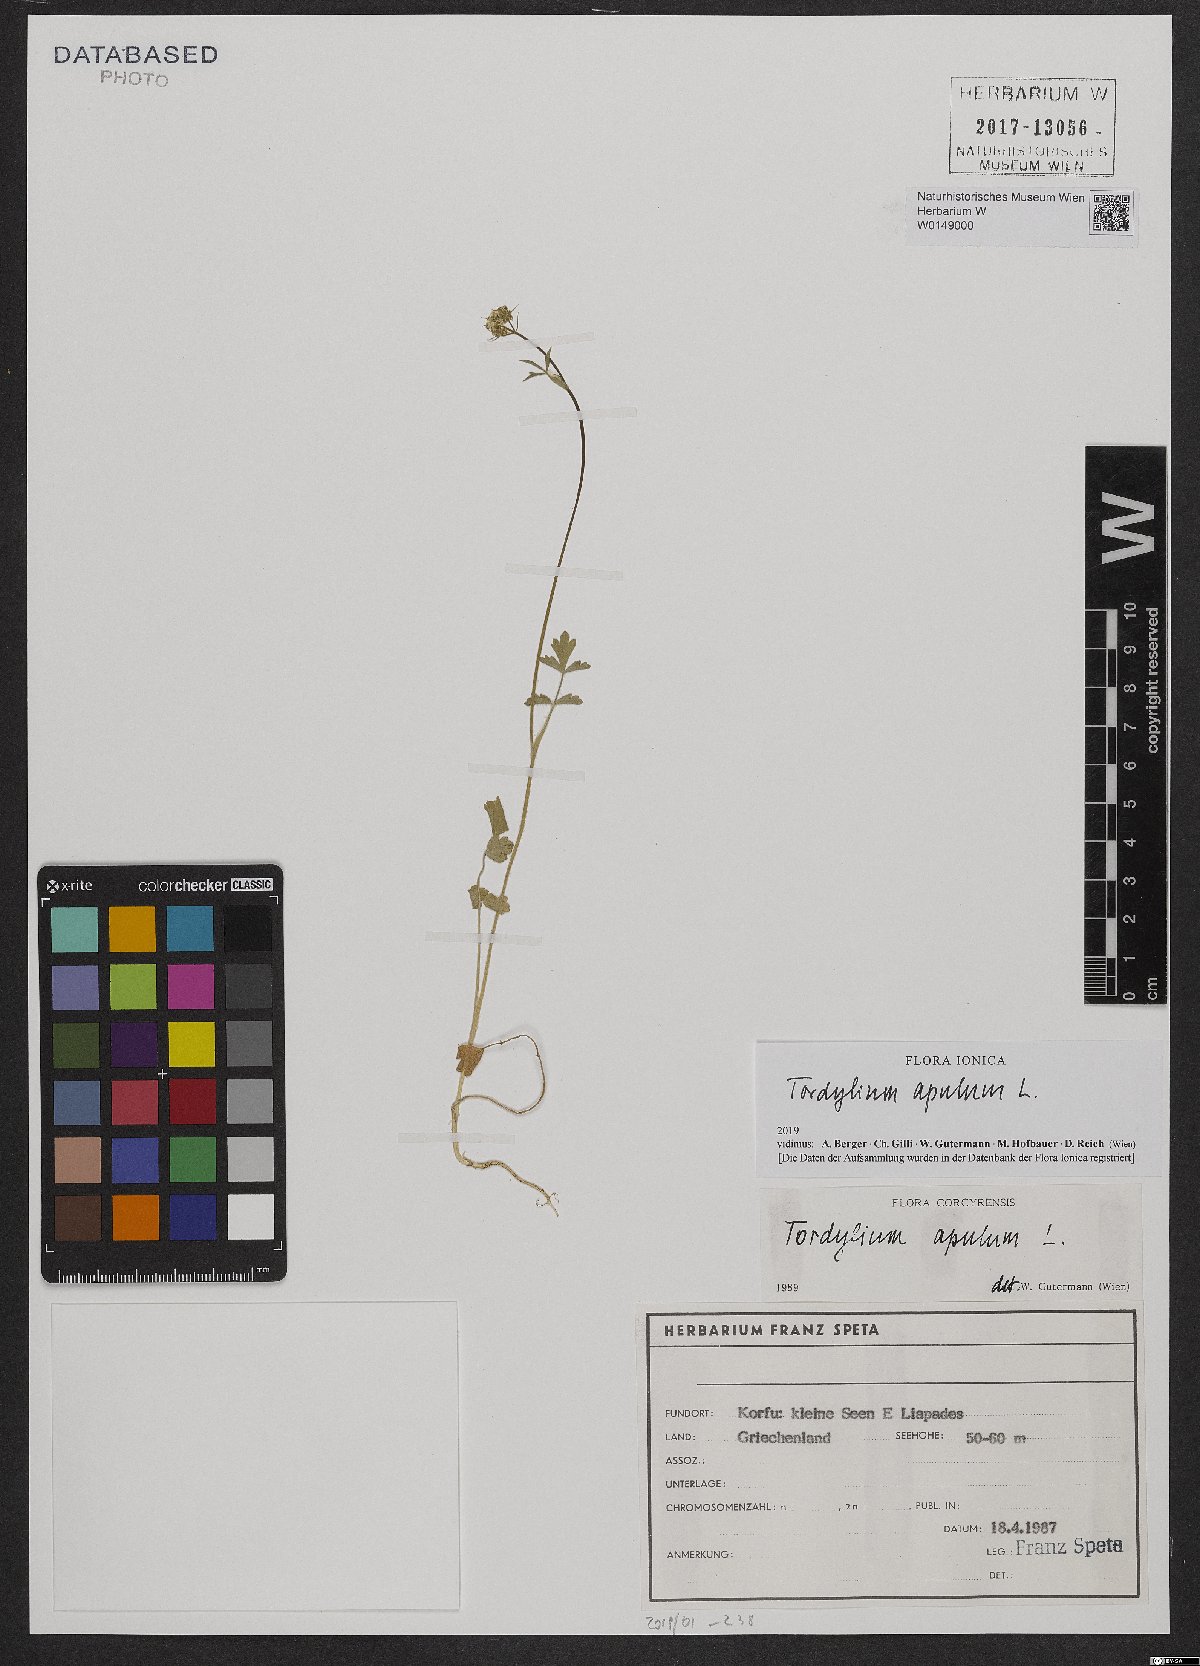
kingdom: Plantae
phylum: Tracheophyta
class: Magnoliopsida
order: Apiales
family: Apiaceae
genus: Tordylium
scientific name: Tordylium apulum
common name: Mediterranean hartwort
